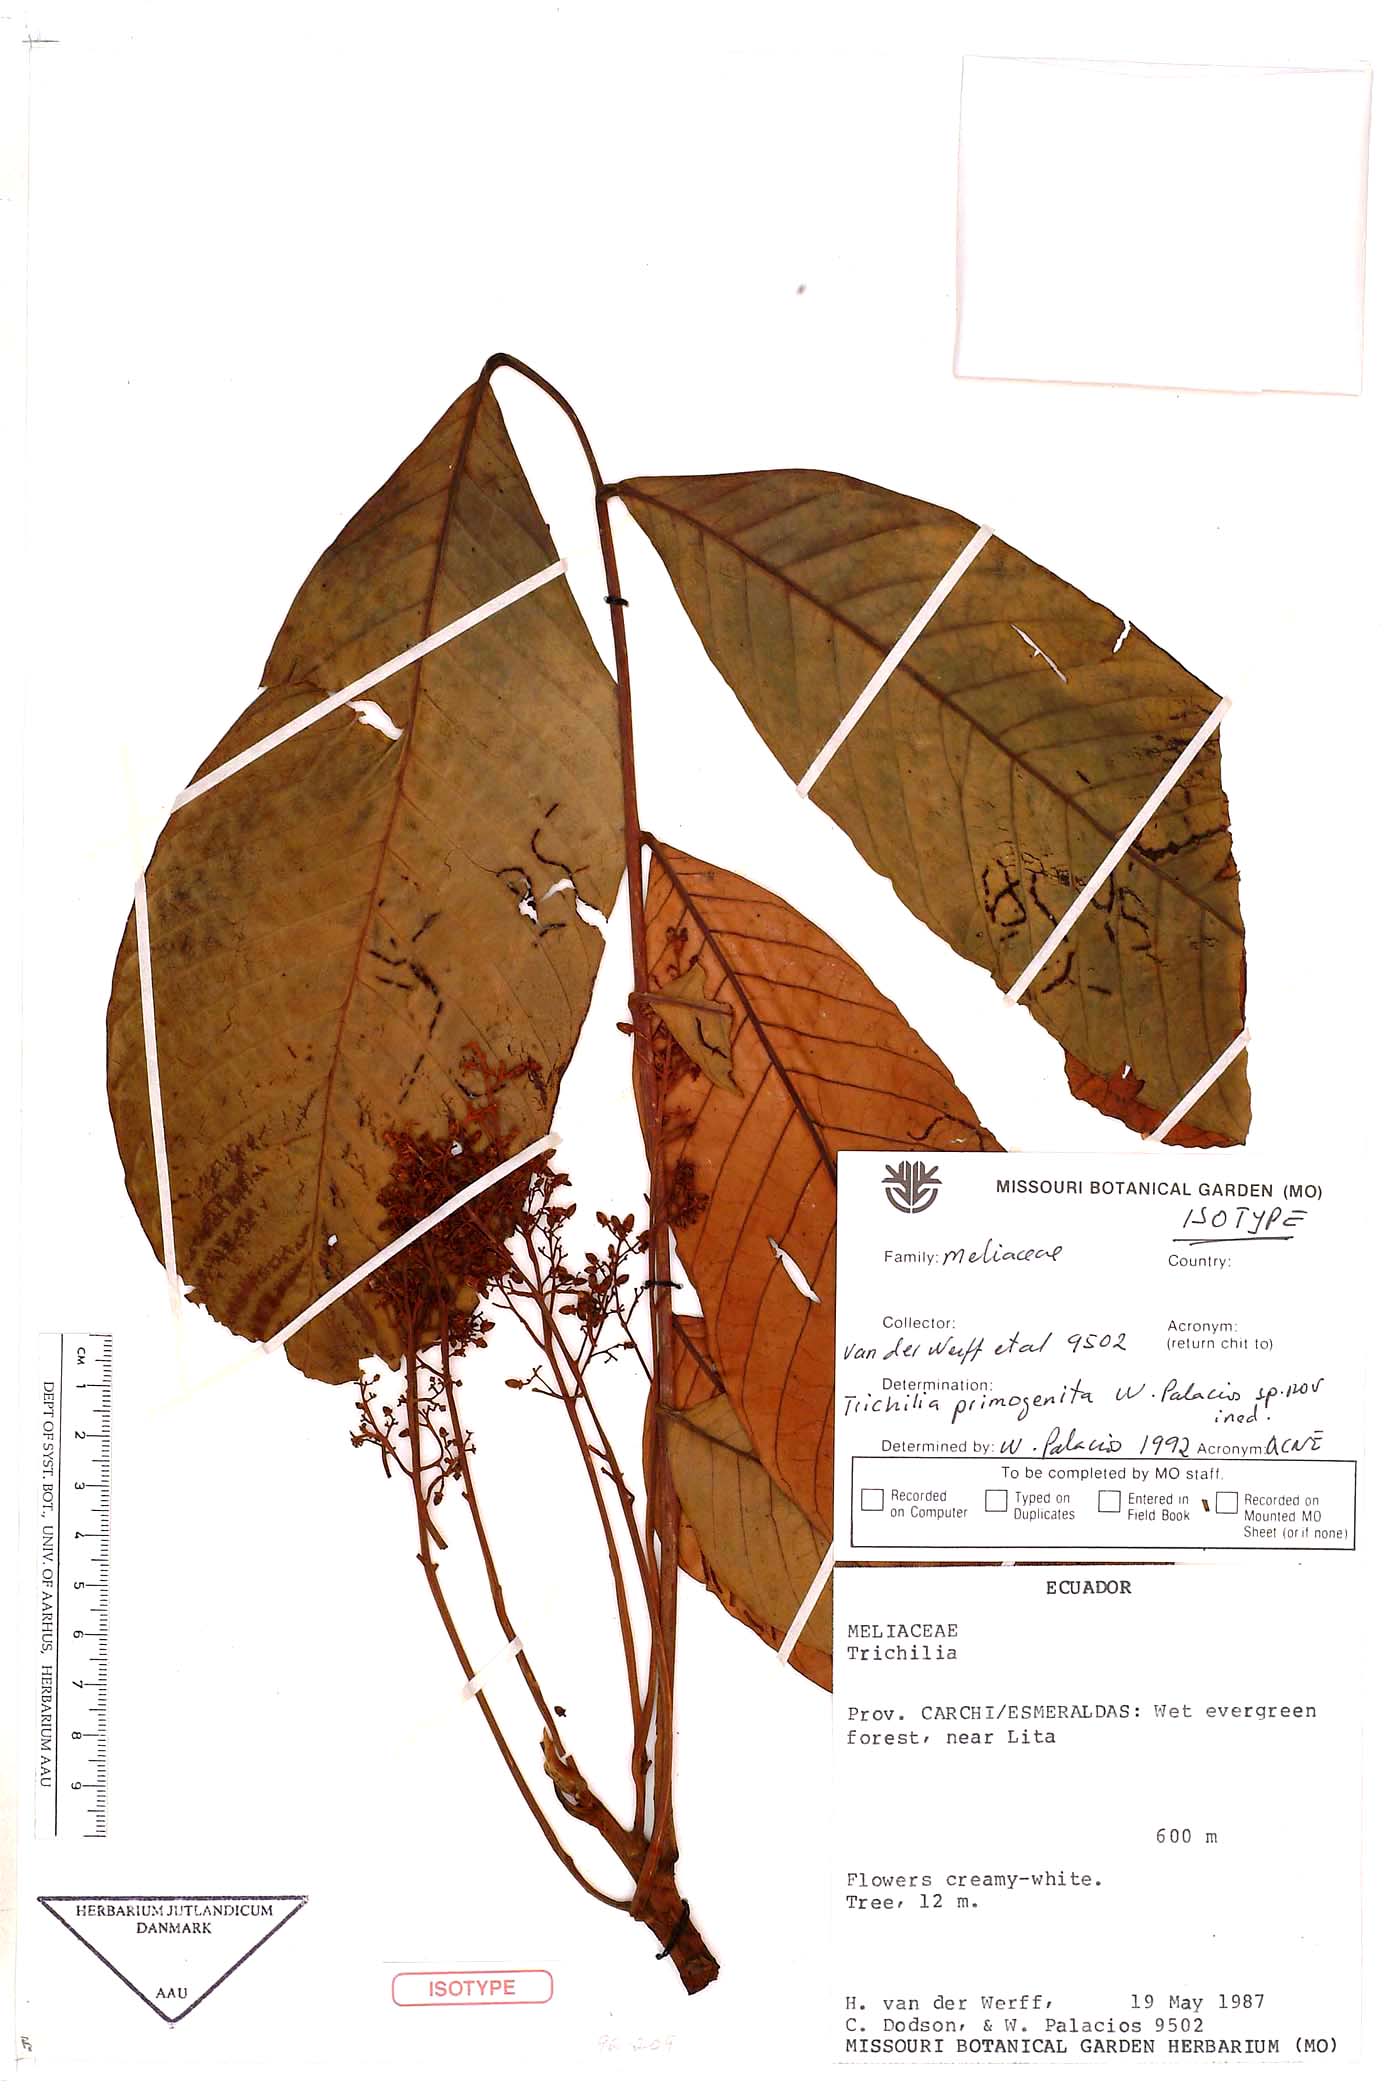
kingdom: Plantae
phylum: Tracheophyta
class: Magnoliopsida
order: Sapindales
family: Meliaceae
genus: Trichilia
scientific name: Trichilia primogenita
